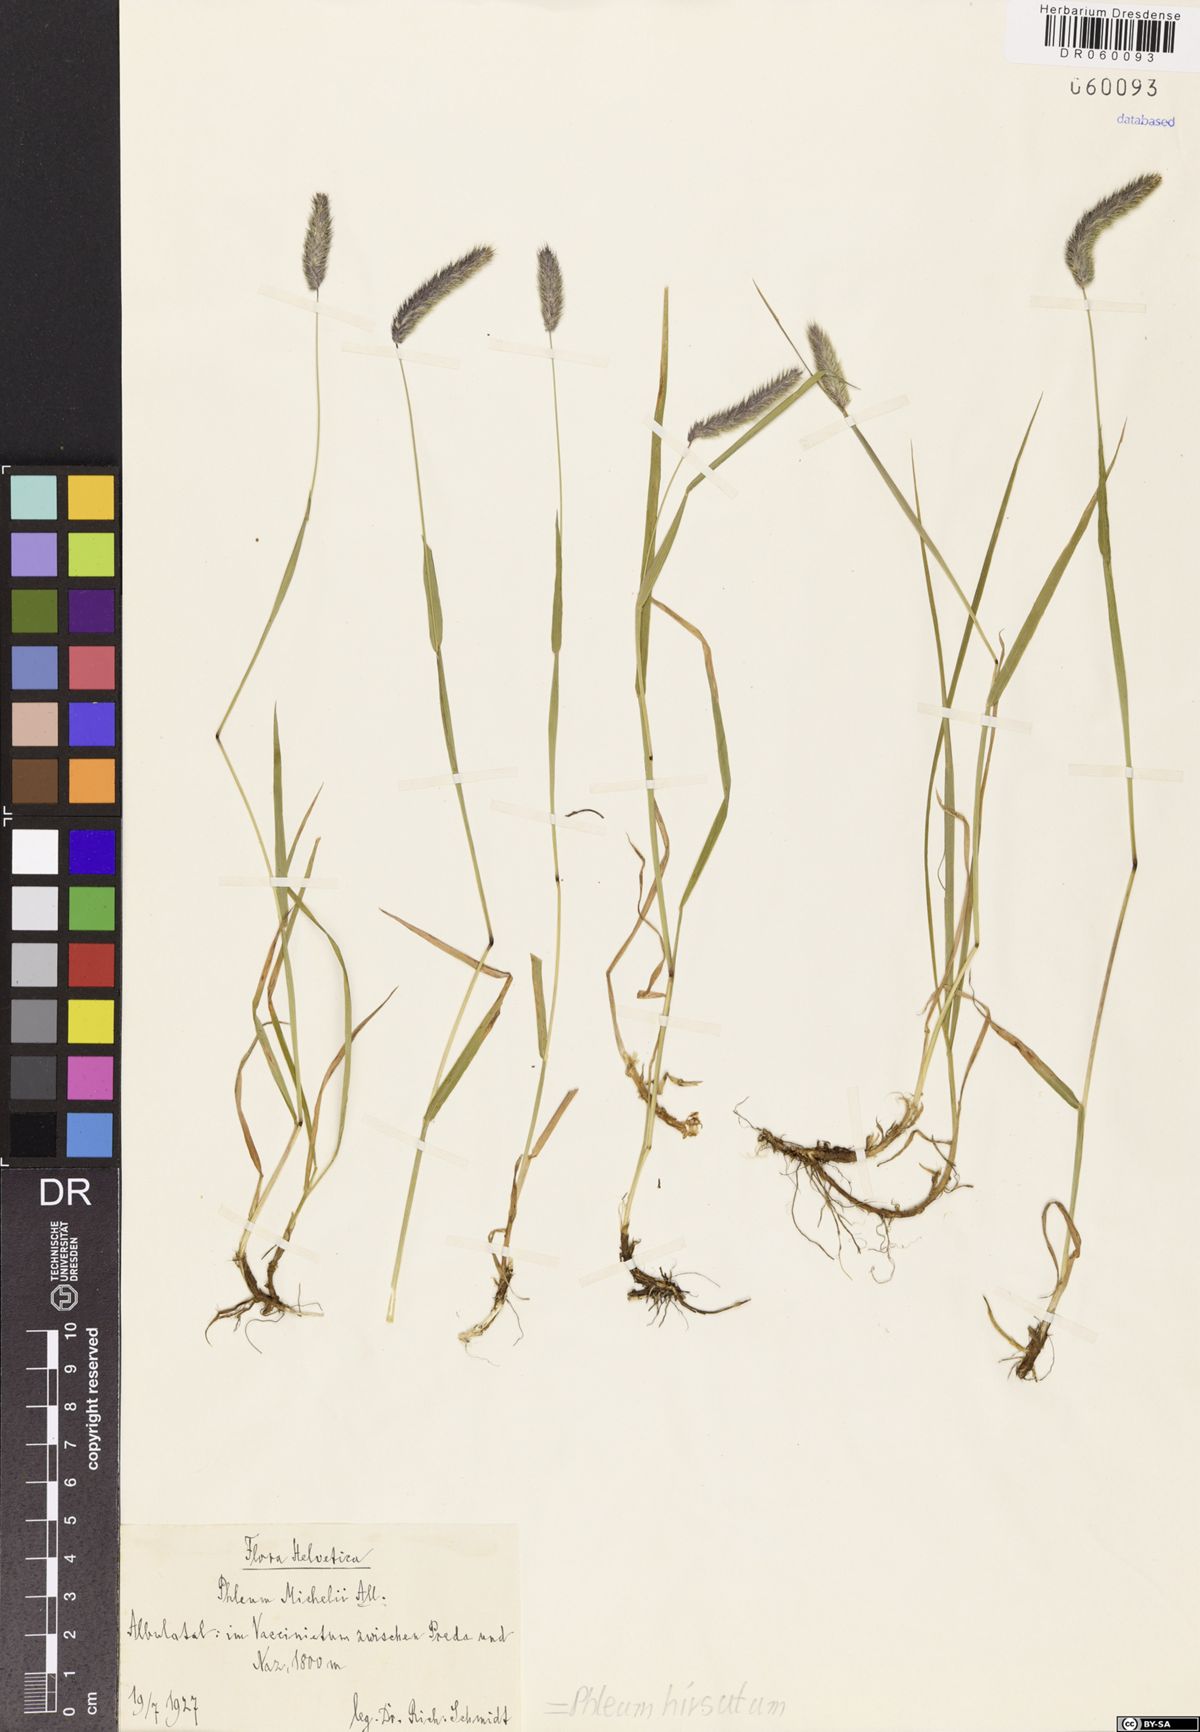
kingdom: Plantae
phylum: Tracheophyta
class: Liliopsida
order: Poales
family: Poaceae
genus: Phleum
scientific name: Phleum hirsutum
